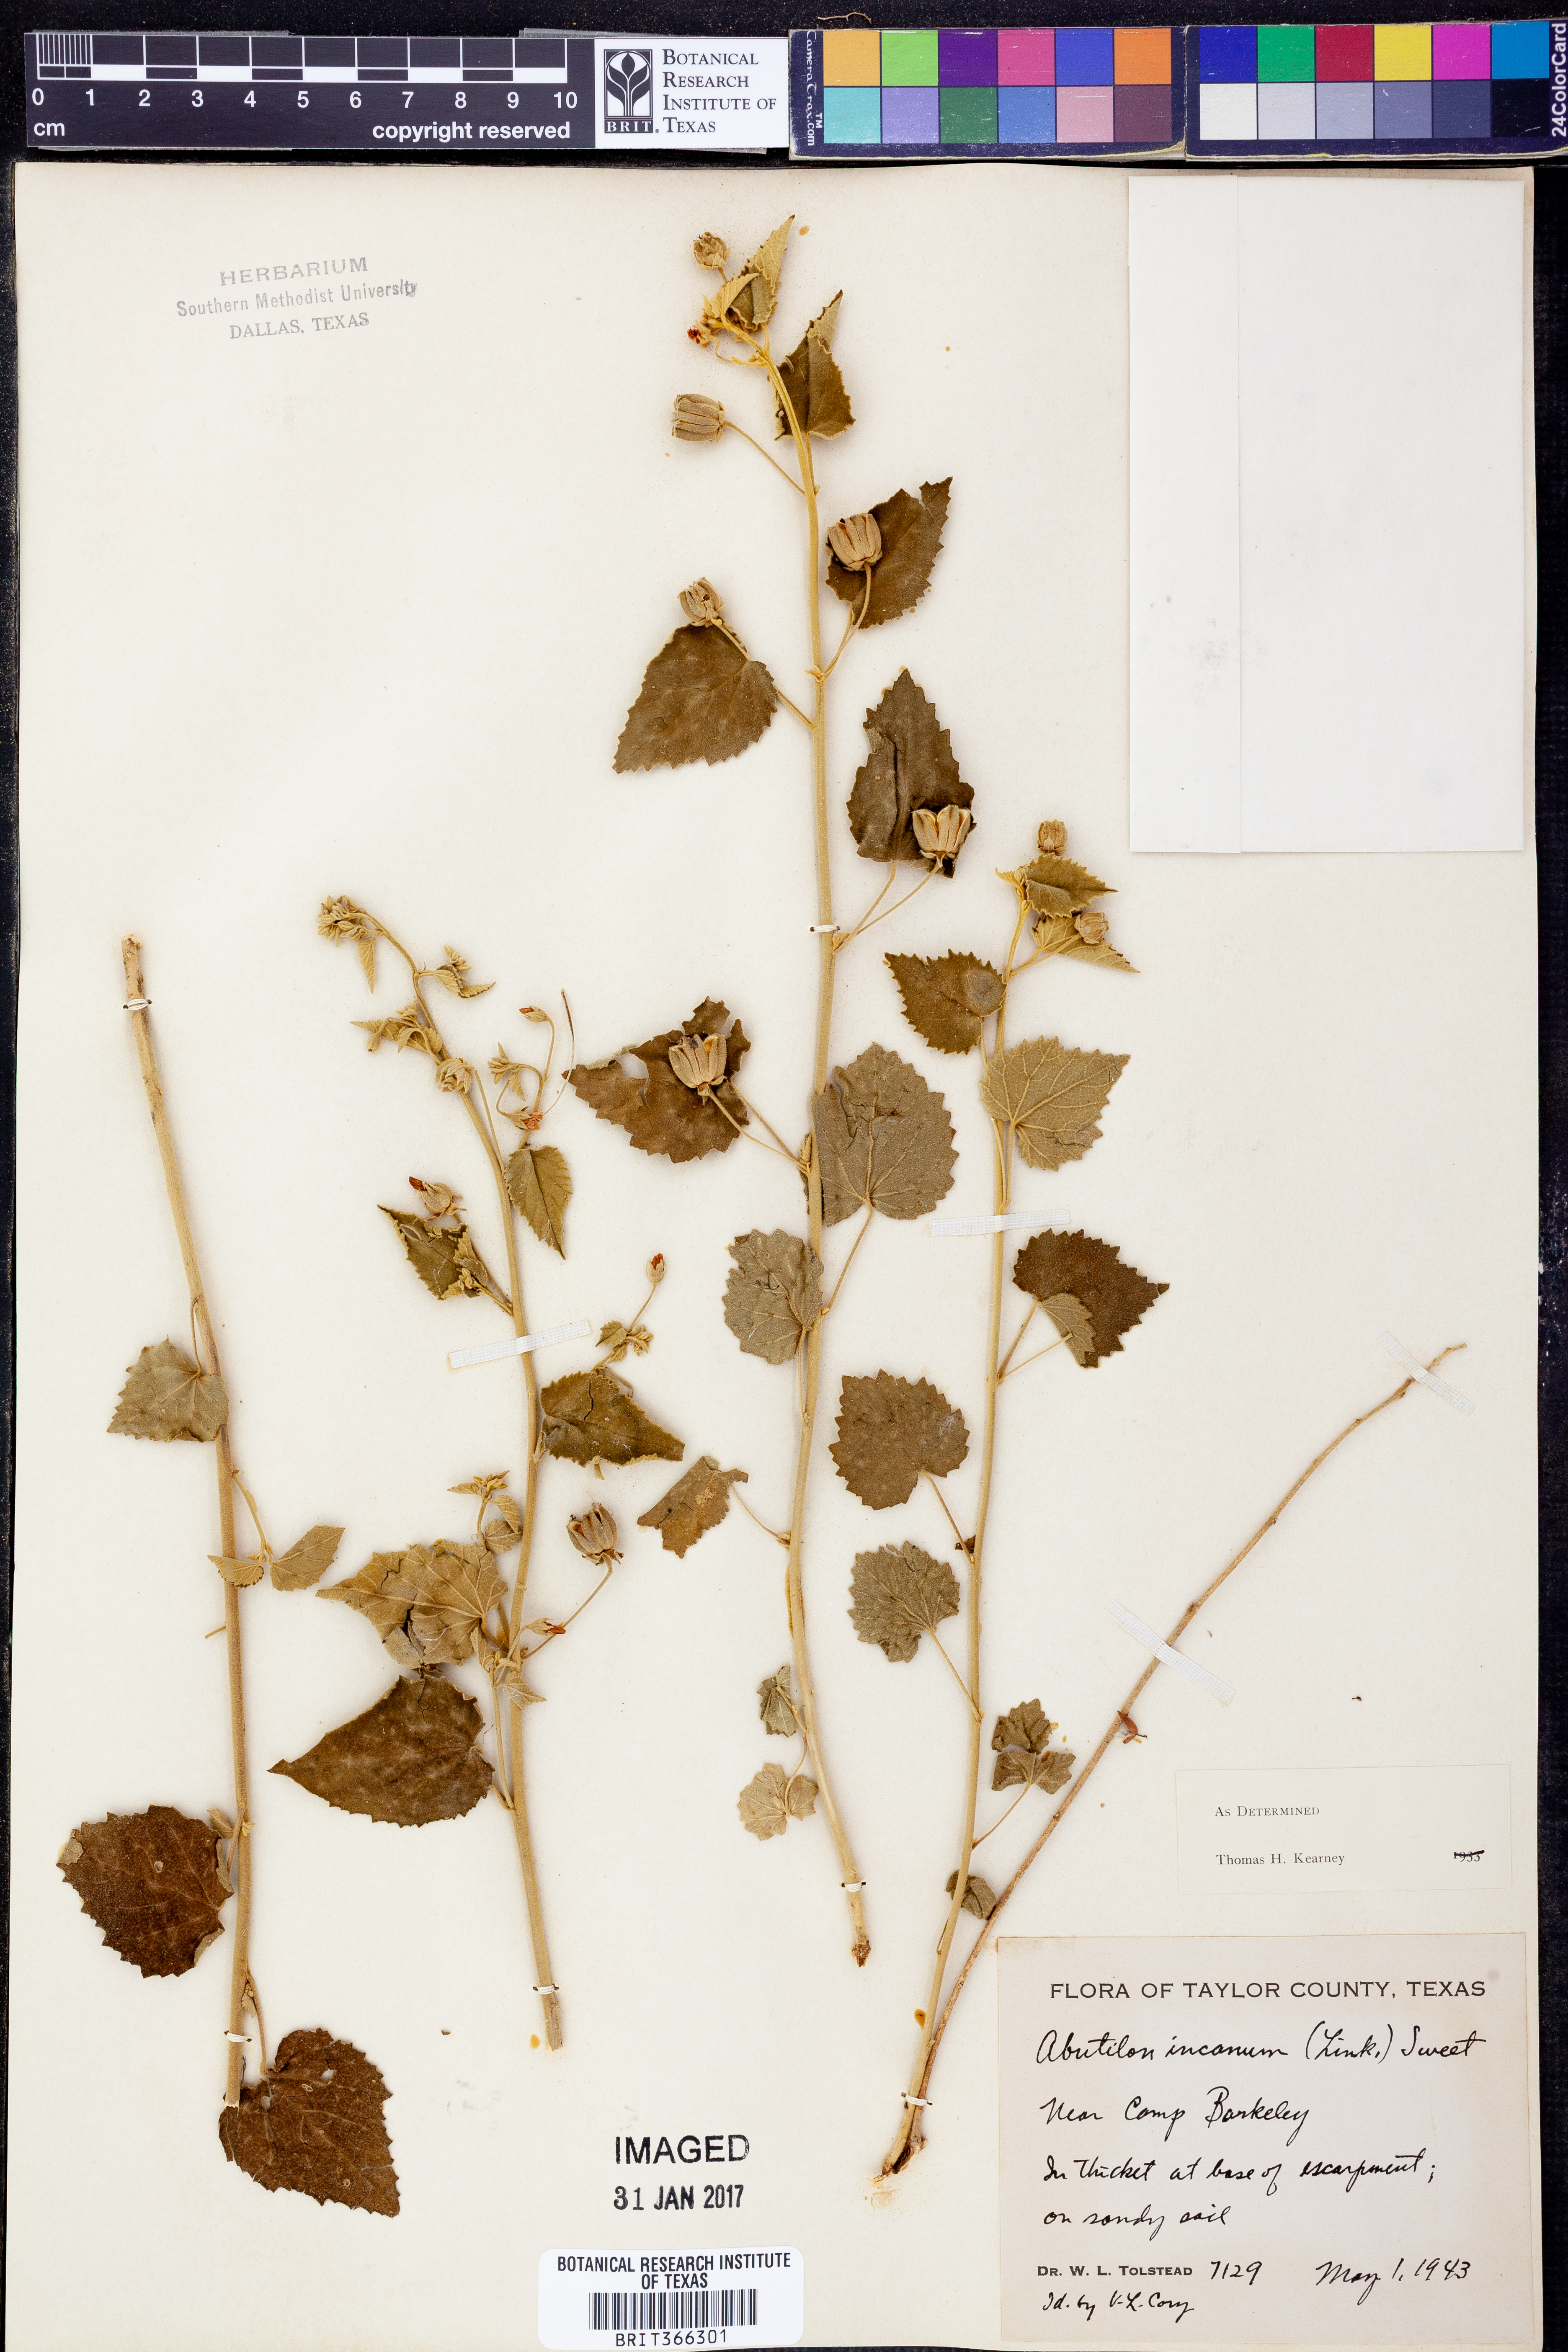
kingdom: Plantae
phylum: Tracheophyta
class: Magnoliopsida
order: Malvales
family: Malvaceae
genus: Abutilon
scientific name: Abutilon incanum
